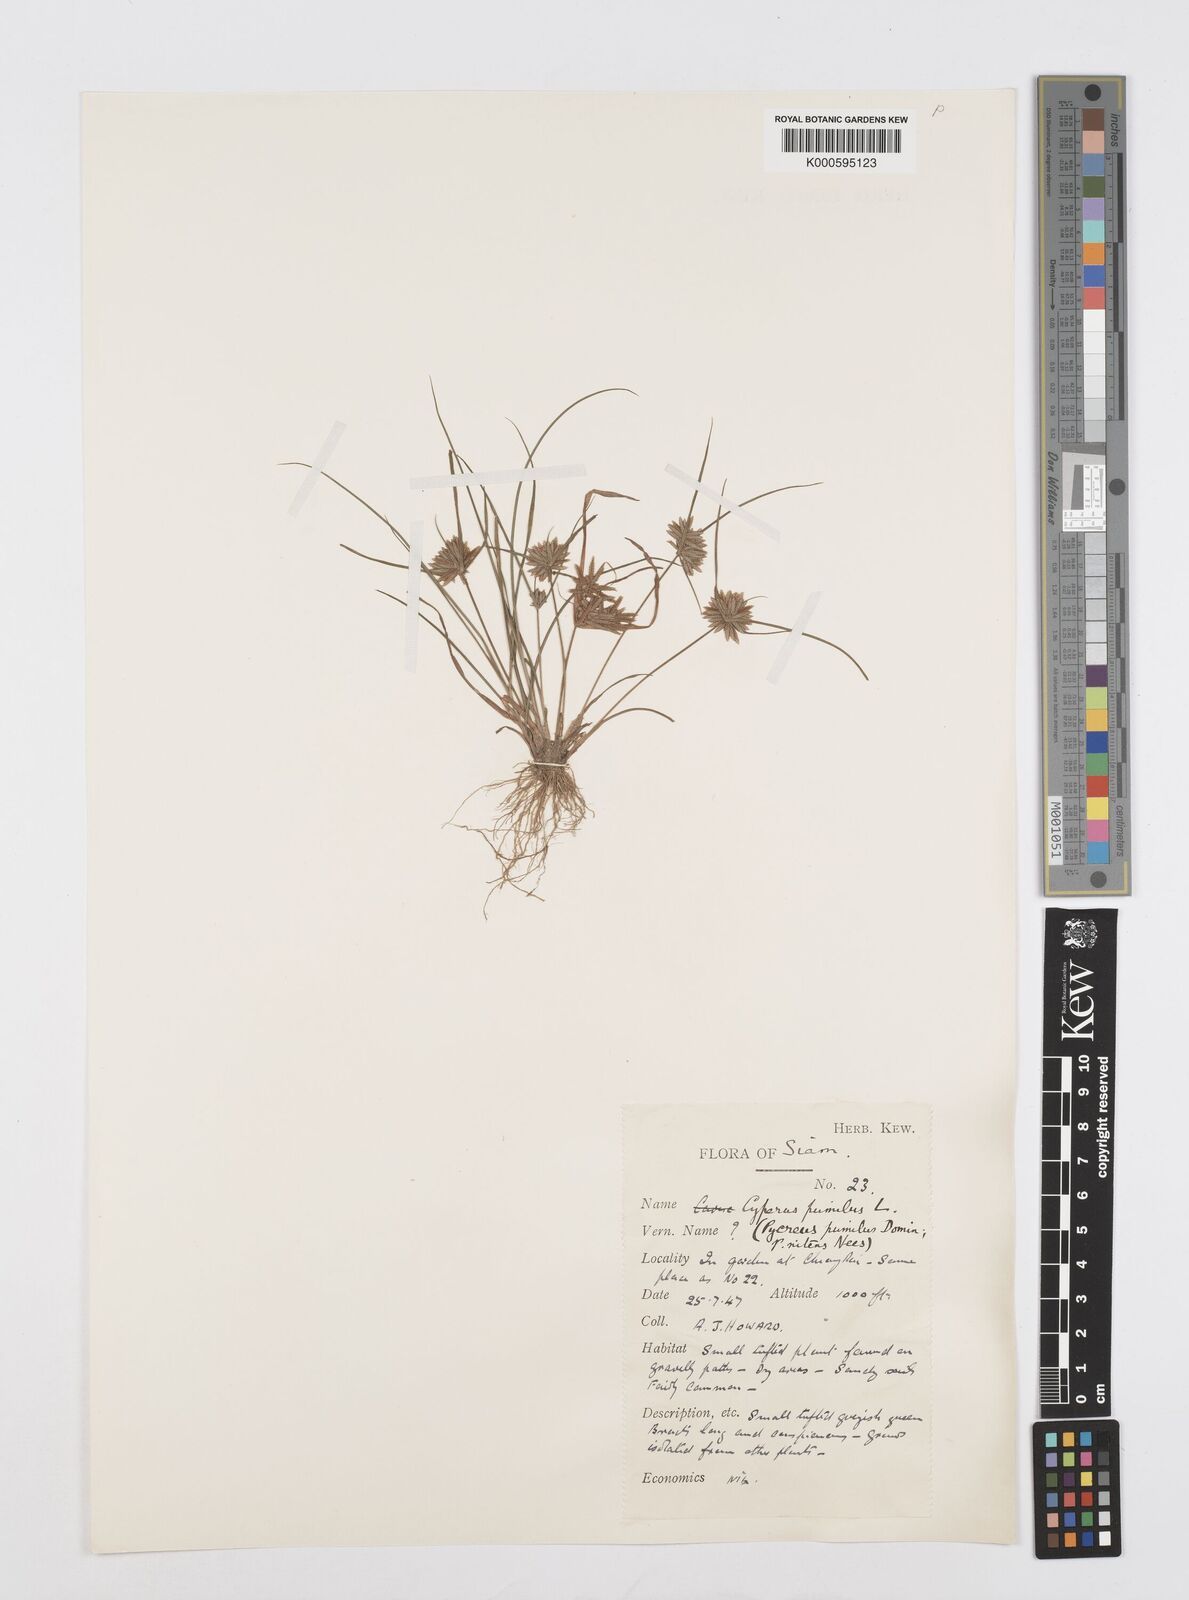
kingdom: Plantae
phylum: Tracheophyta
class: Liliopsida
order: Poales
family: Cyperaceae
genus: Cyperus
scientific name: Cyperus pumilus
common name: Low flatsedge
